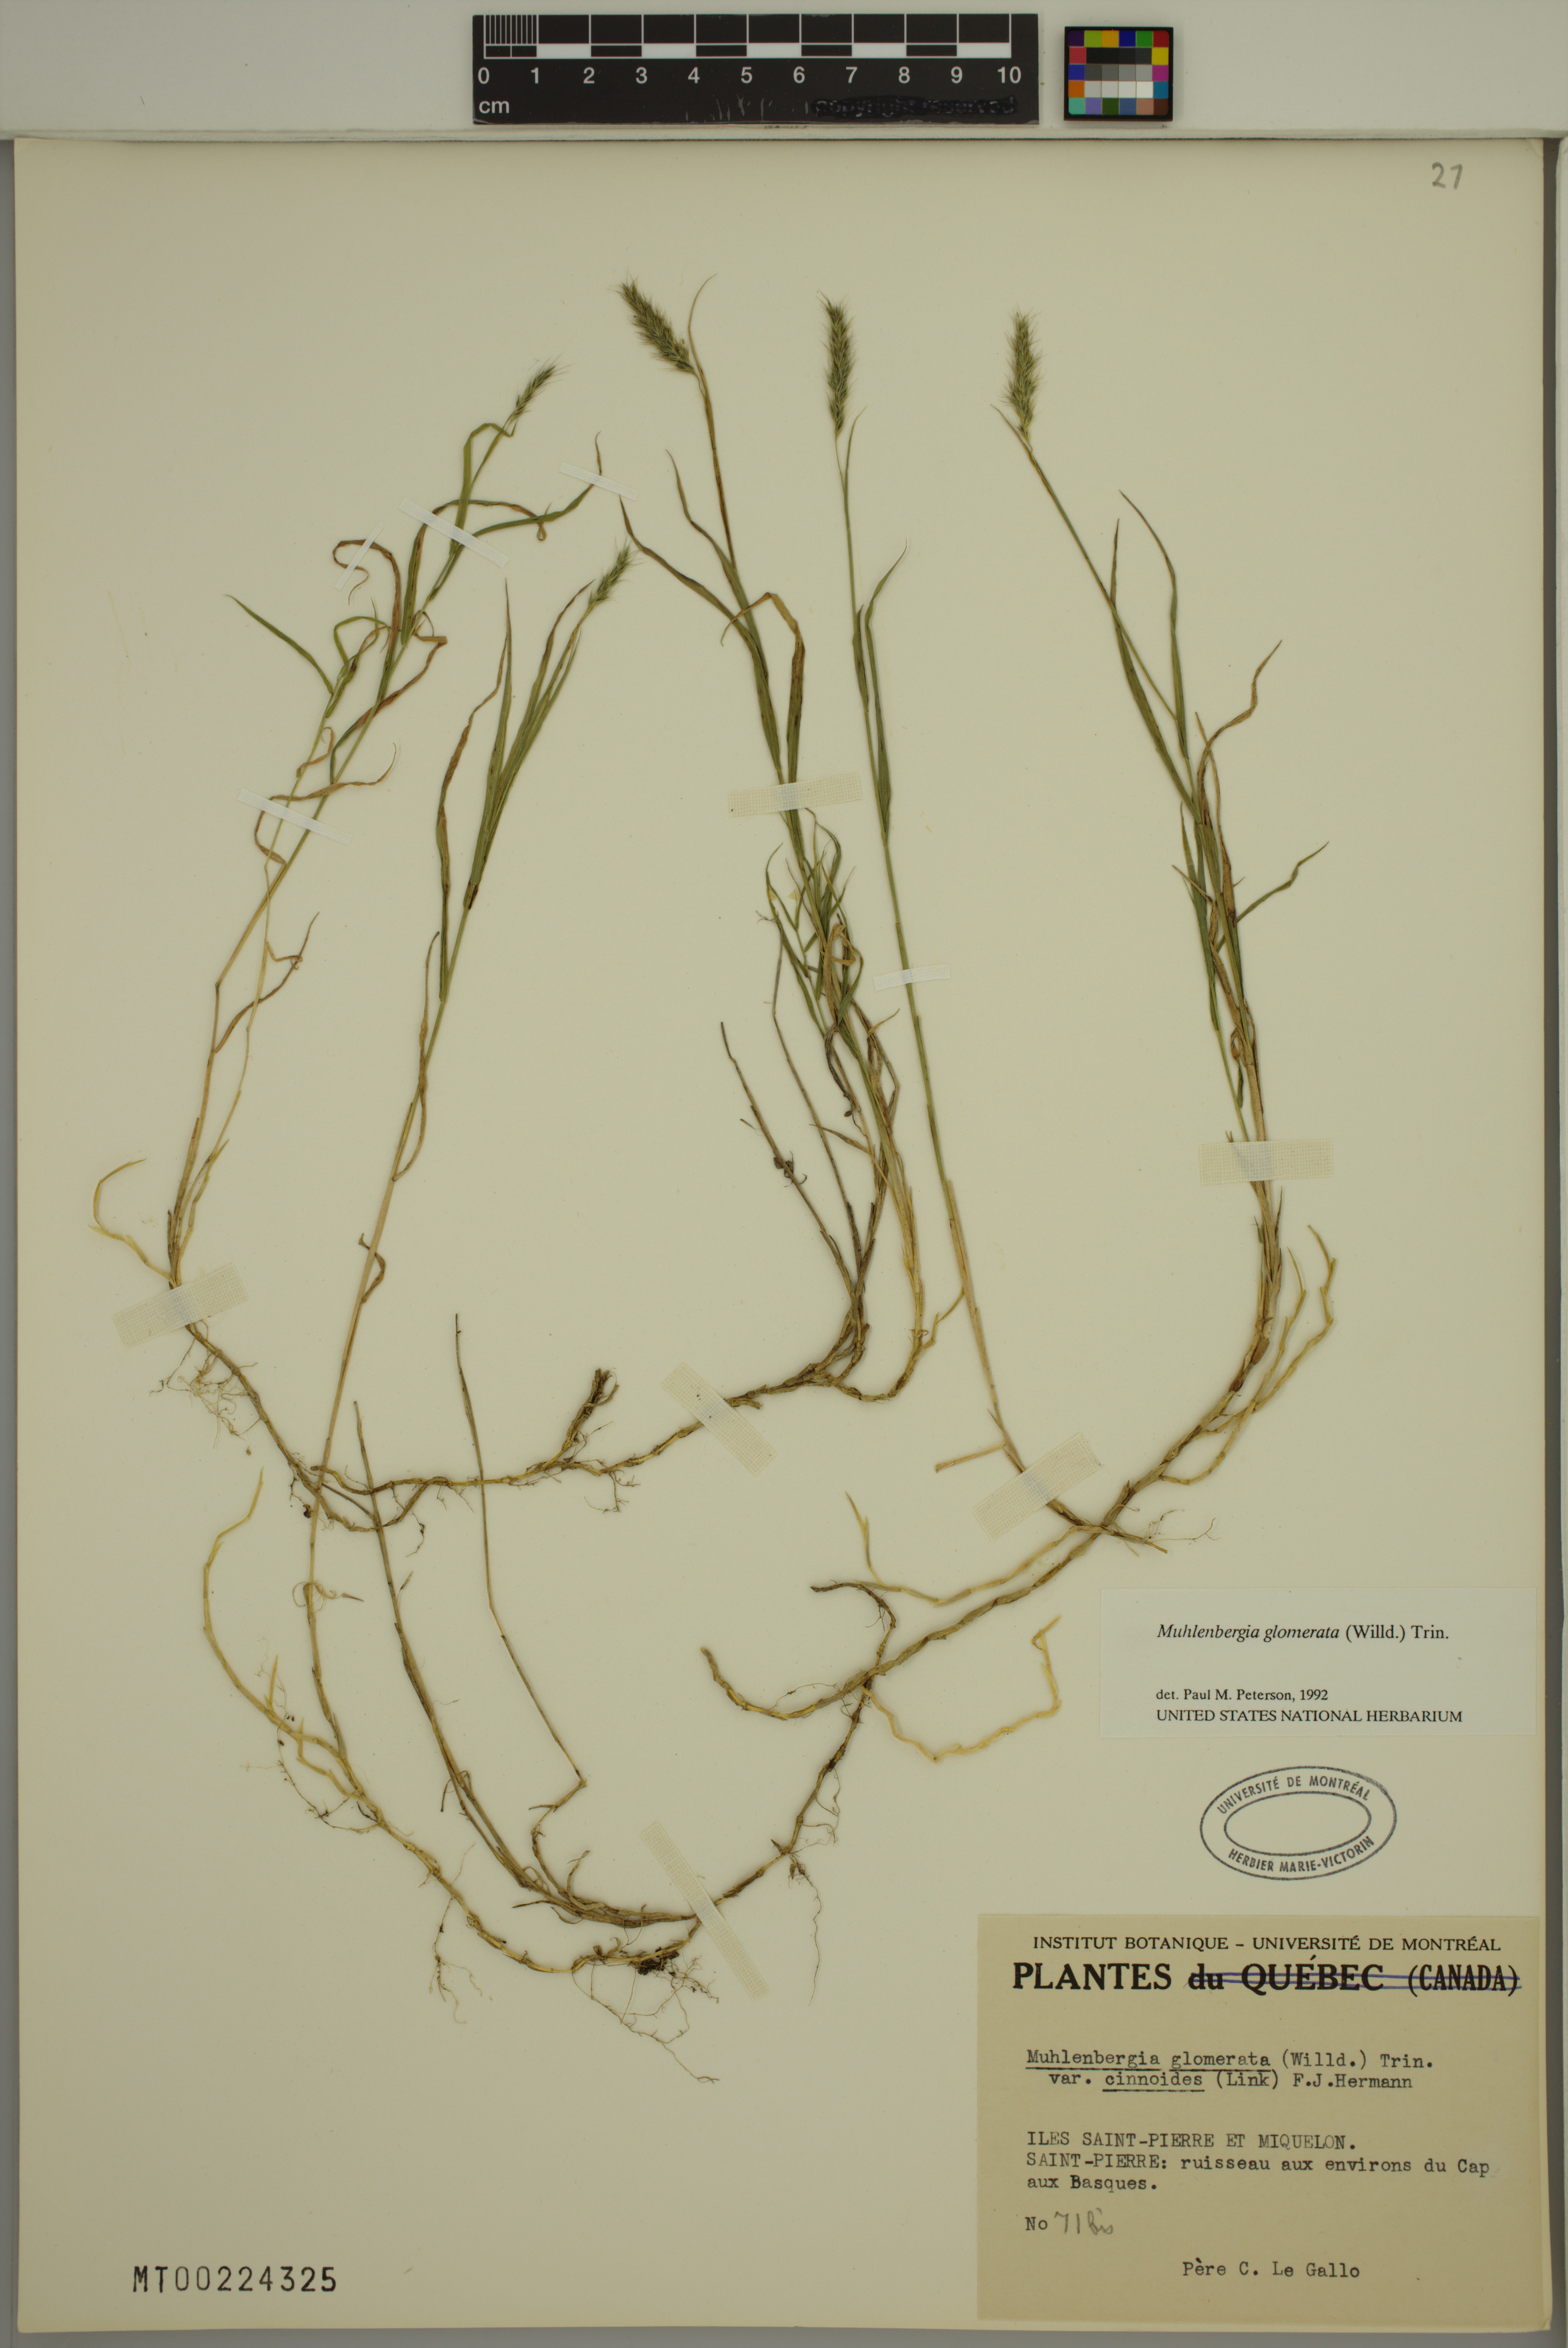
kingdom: Plantae
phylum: Tracheophyta
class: Liliopsida
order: Poales
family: Poaceae
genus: Muhlenbergia
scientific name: Muhlenbergia glomerata
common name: Bog muhly
